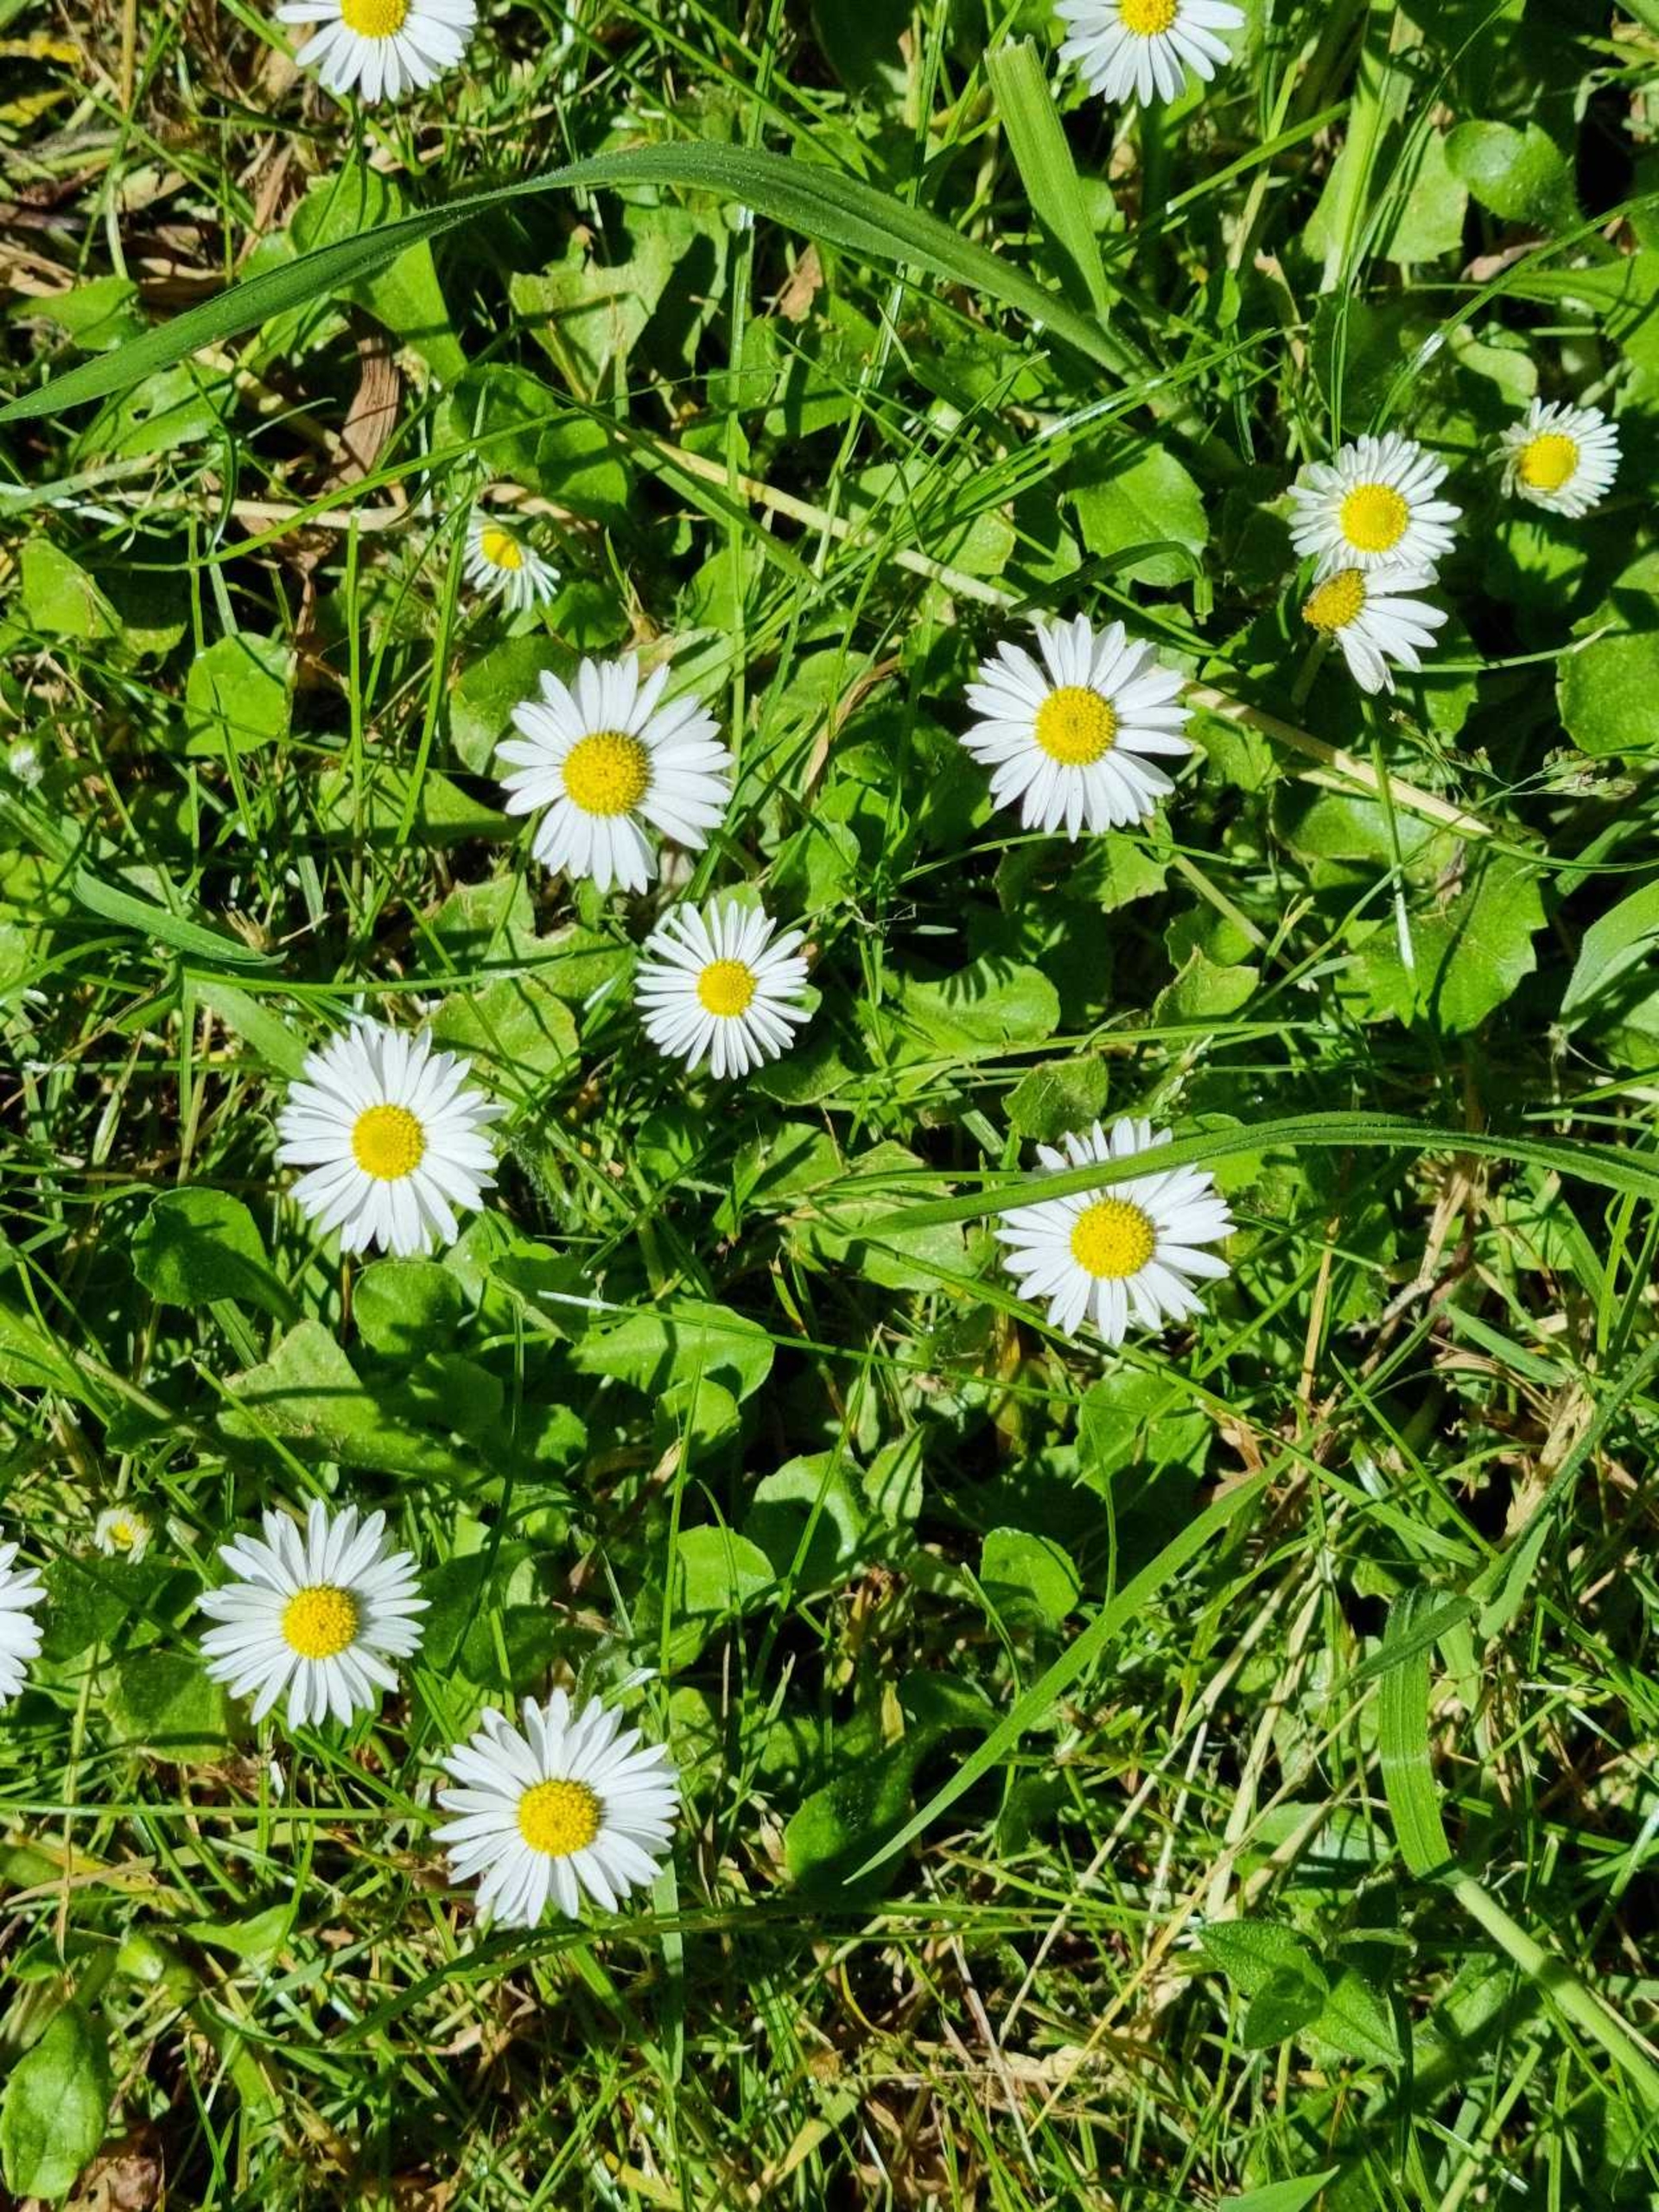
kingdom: Plantae
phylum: Tracheophyta
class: Magnoliopsida
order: Asterales
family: Asteraceae
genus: Bellis
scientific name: Bellis perennis
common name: Tusindfryd
